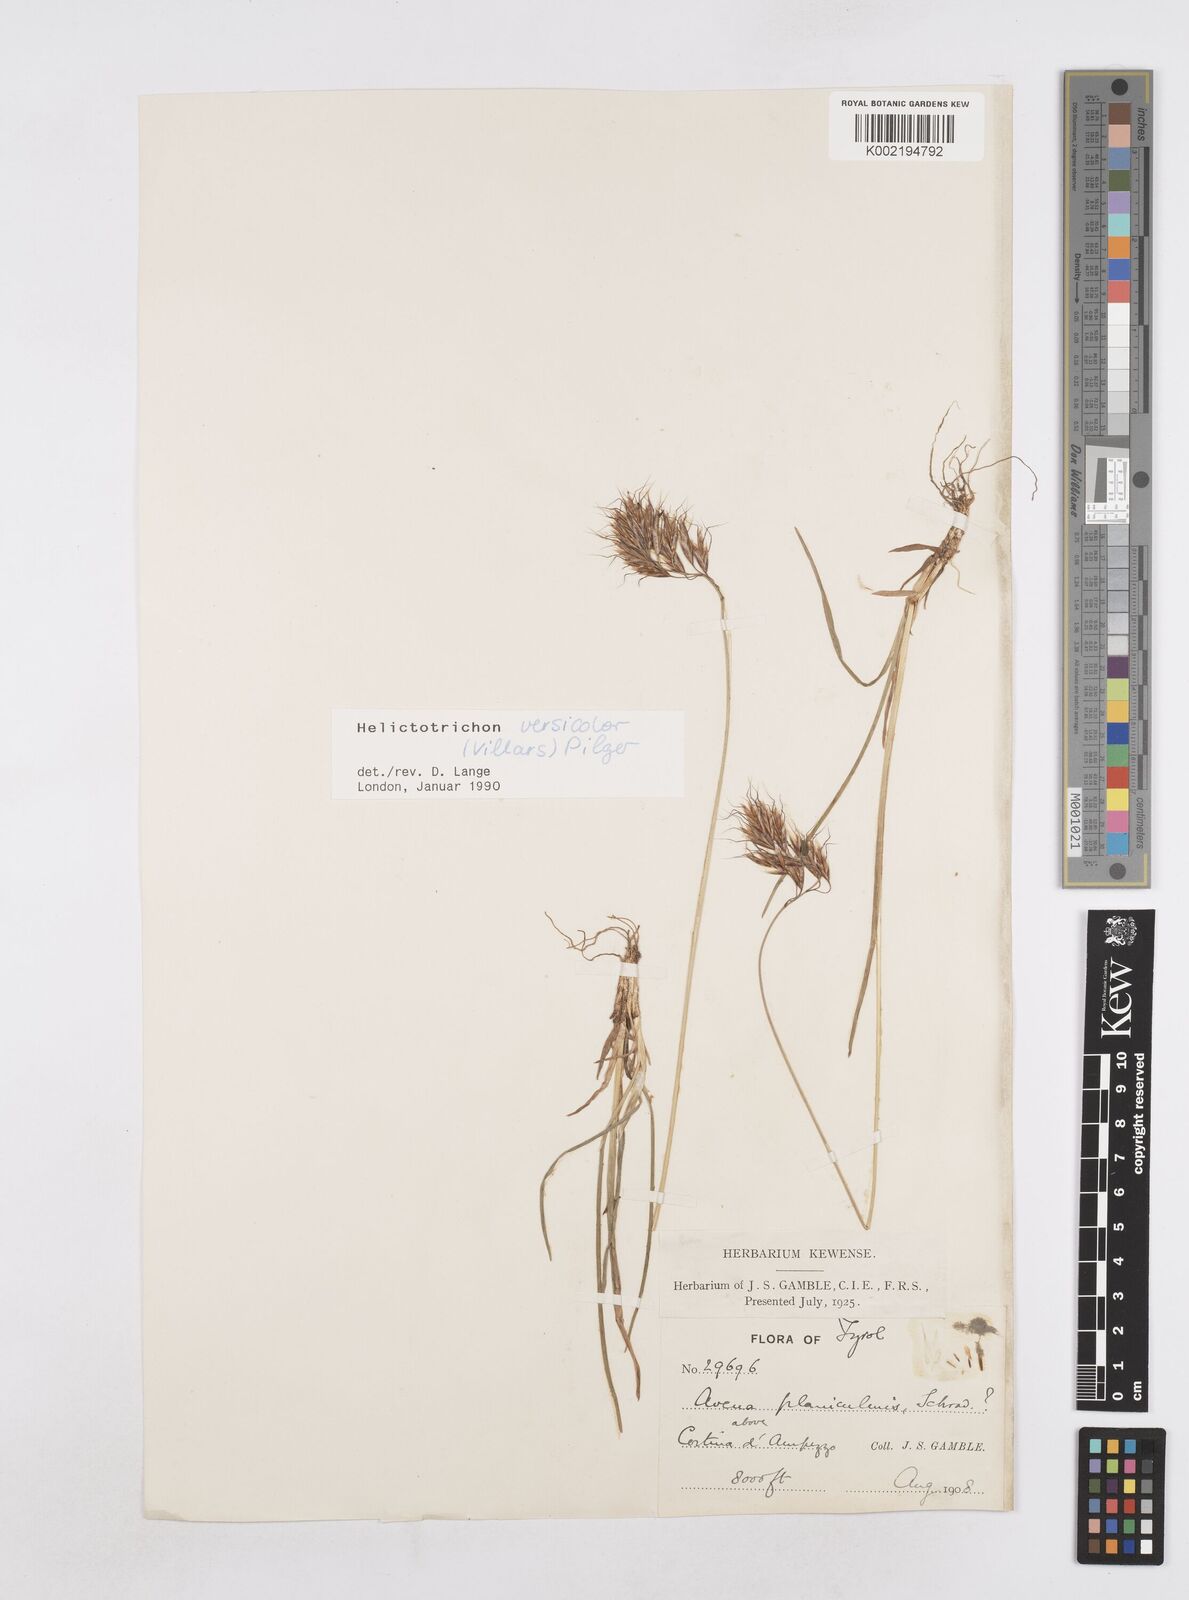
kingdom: Plantae
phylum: Tracheophyta
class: Liliopsida
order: Poales
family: Poaceae
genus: Helictochloa
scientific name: Helictochloa versicolor
